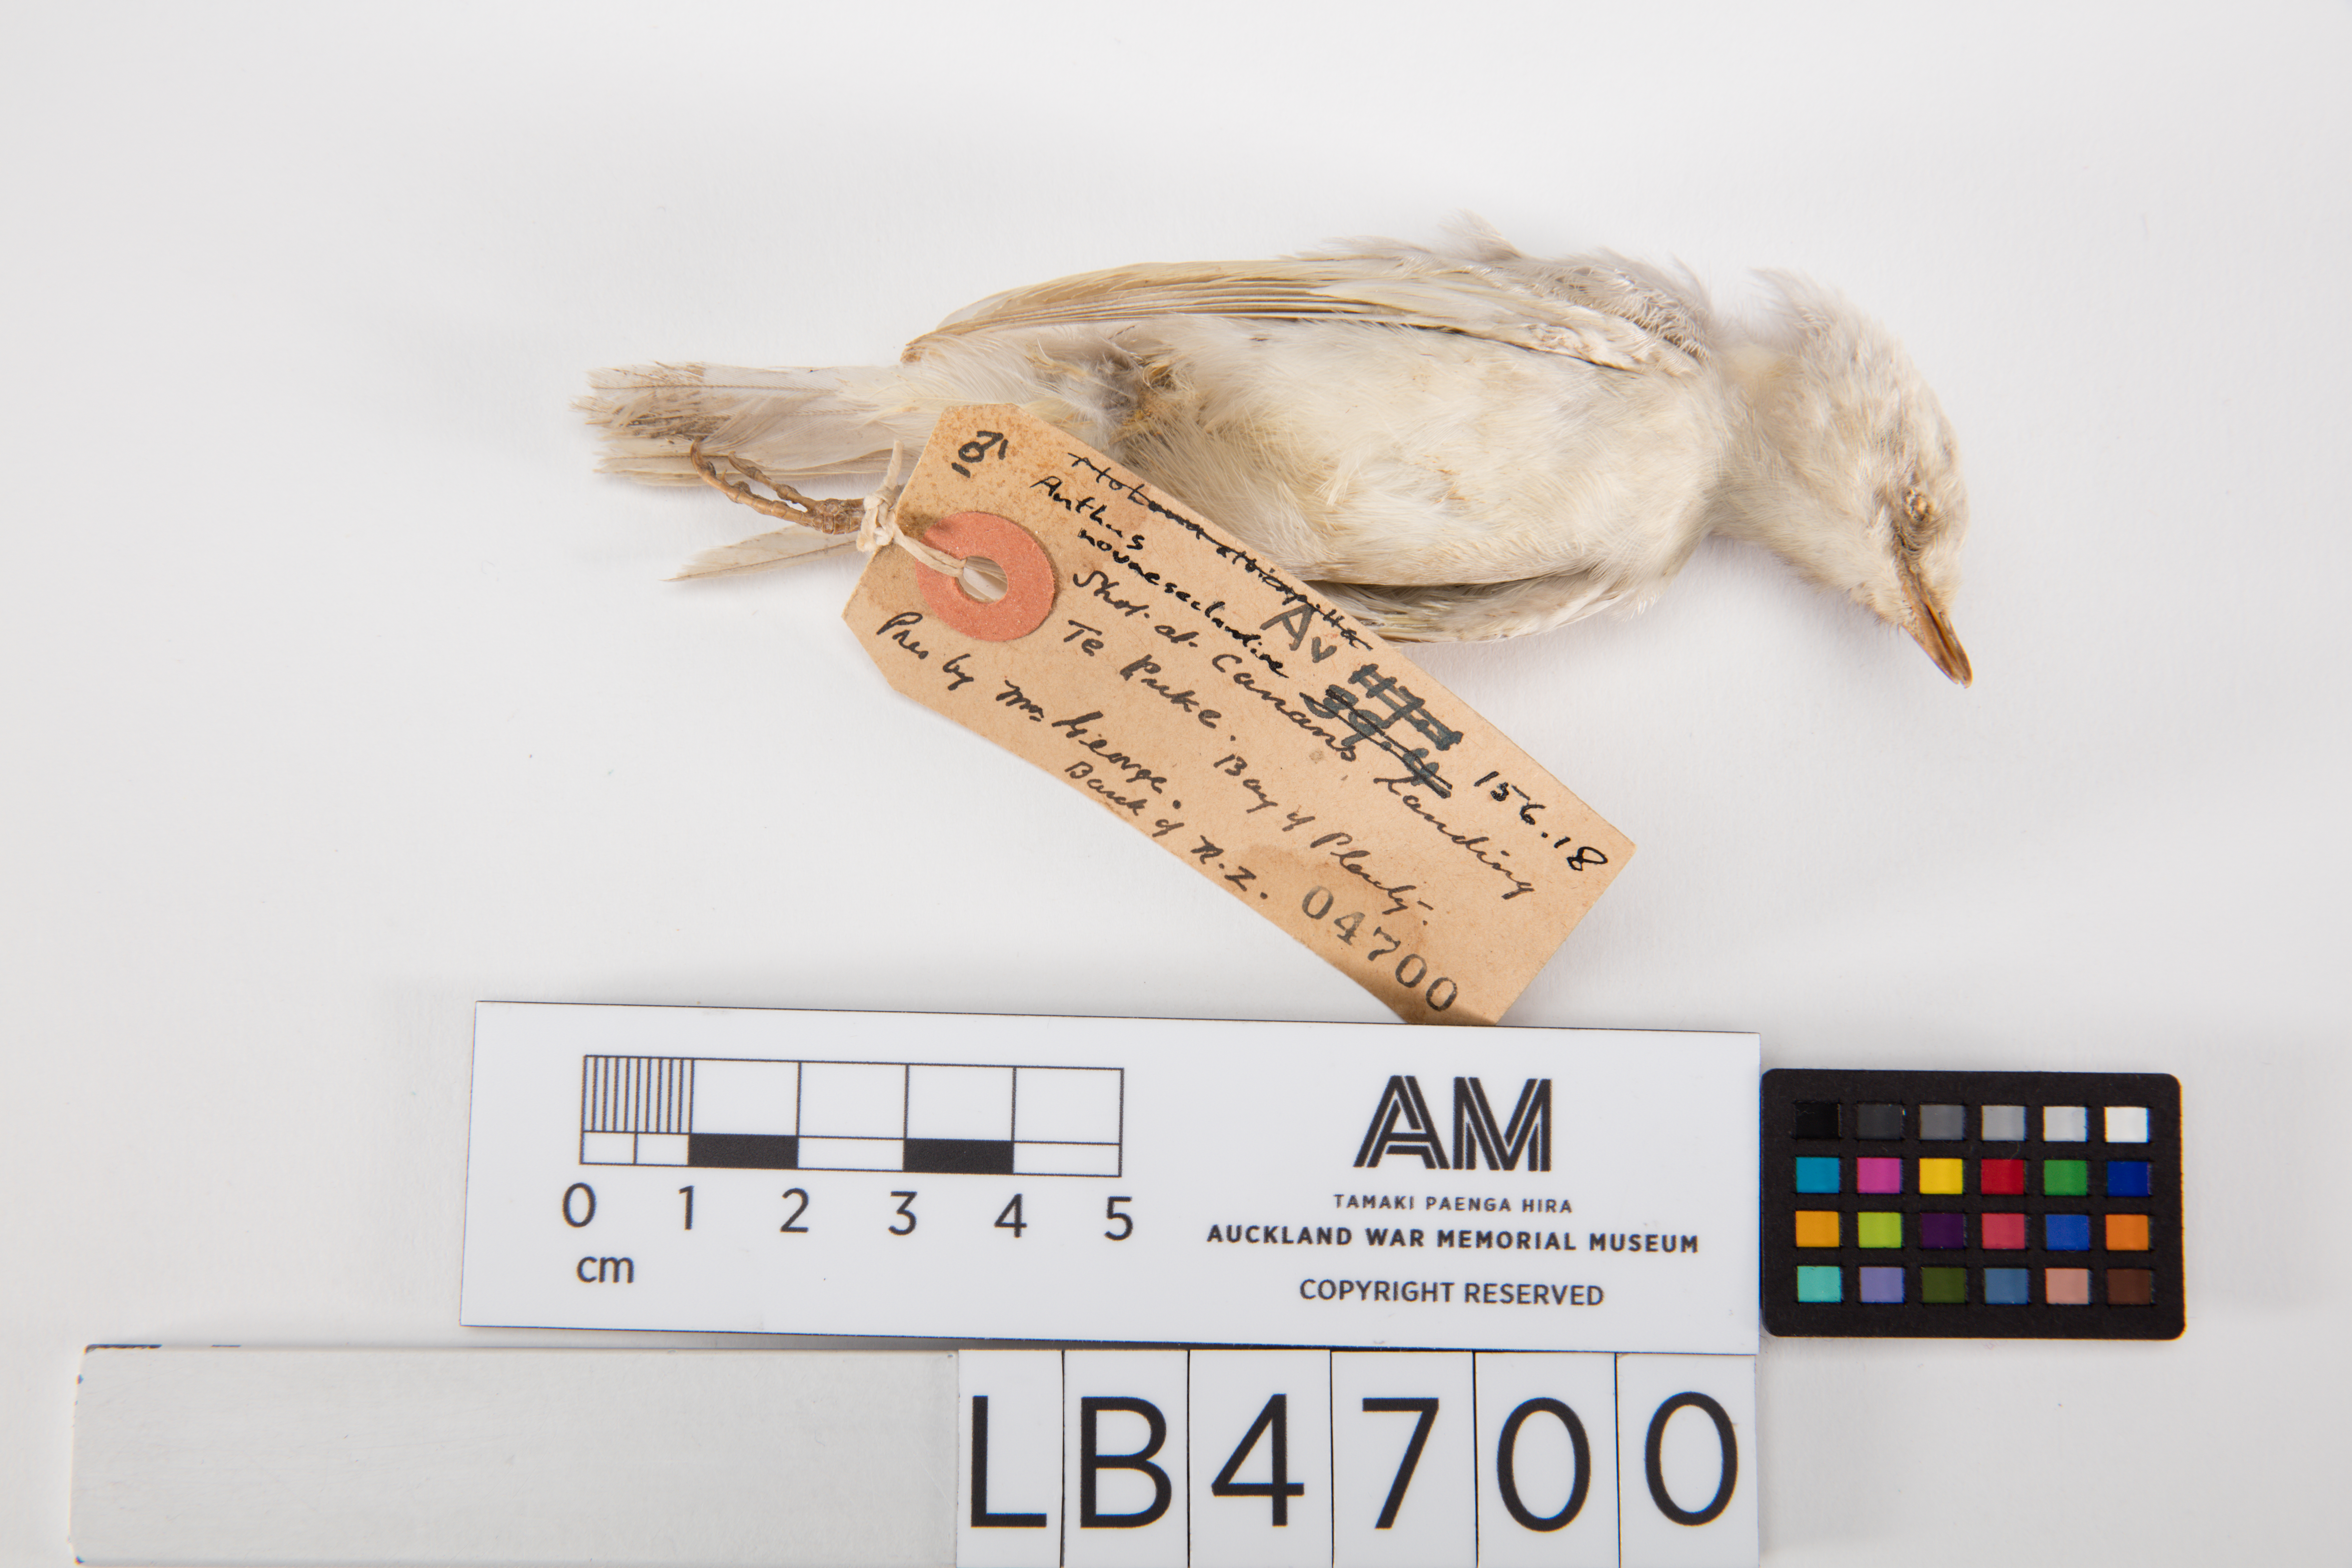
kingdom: Animalia
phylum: Chordata
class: Aves
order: Passeriformes
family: Motacillidae
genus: Anthus
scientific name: Anthus novaeseelandiae
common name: New zealand pipit
